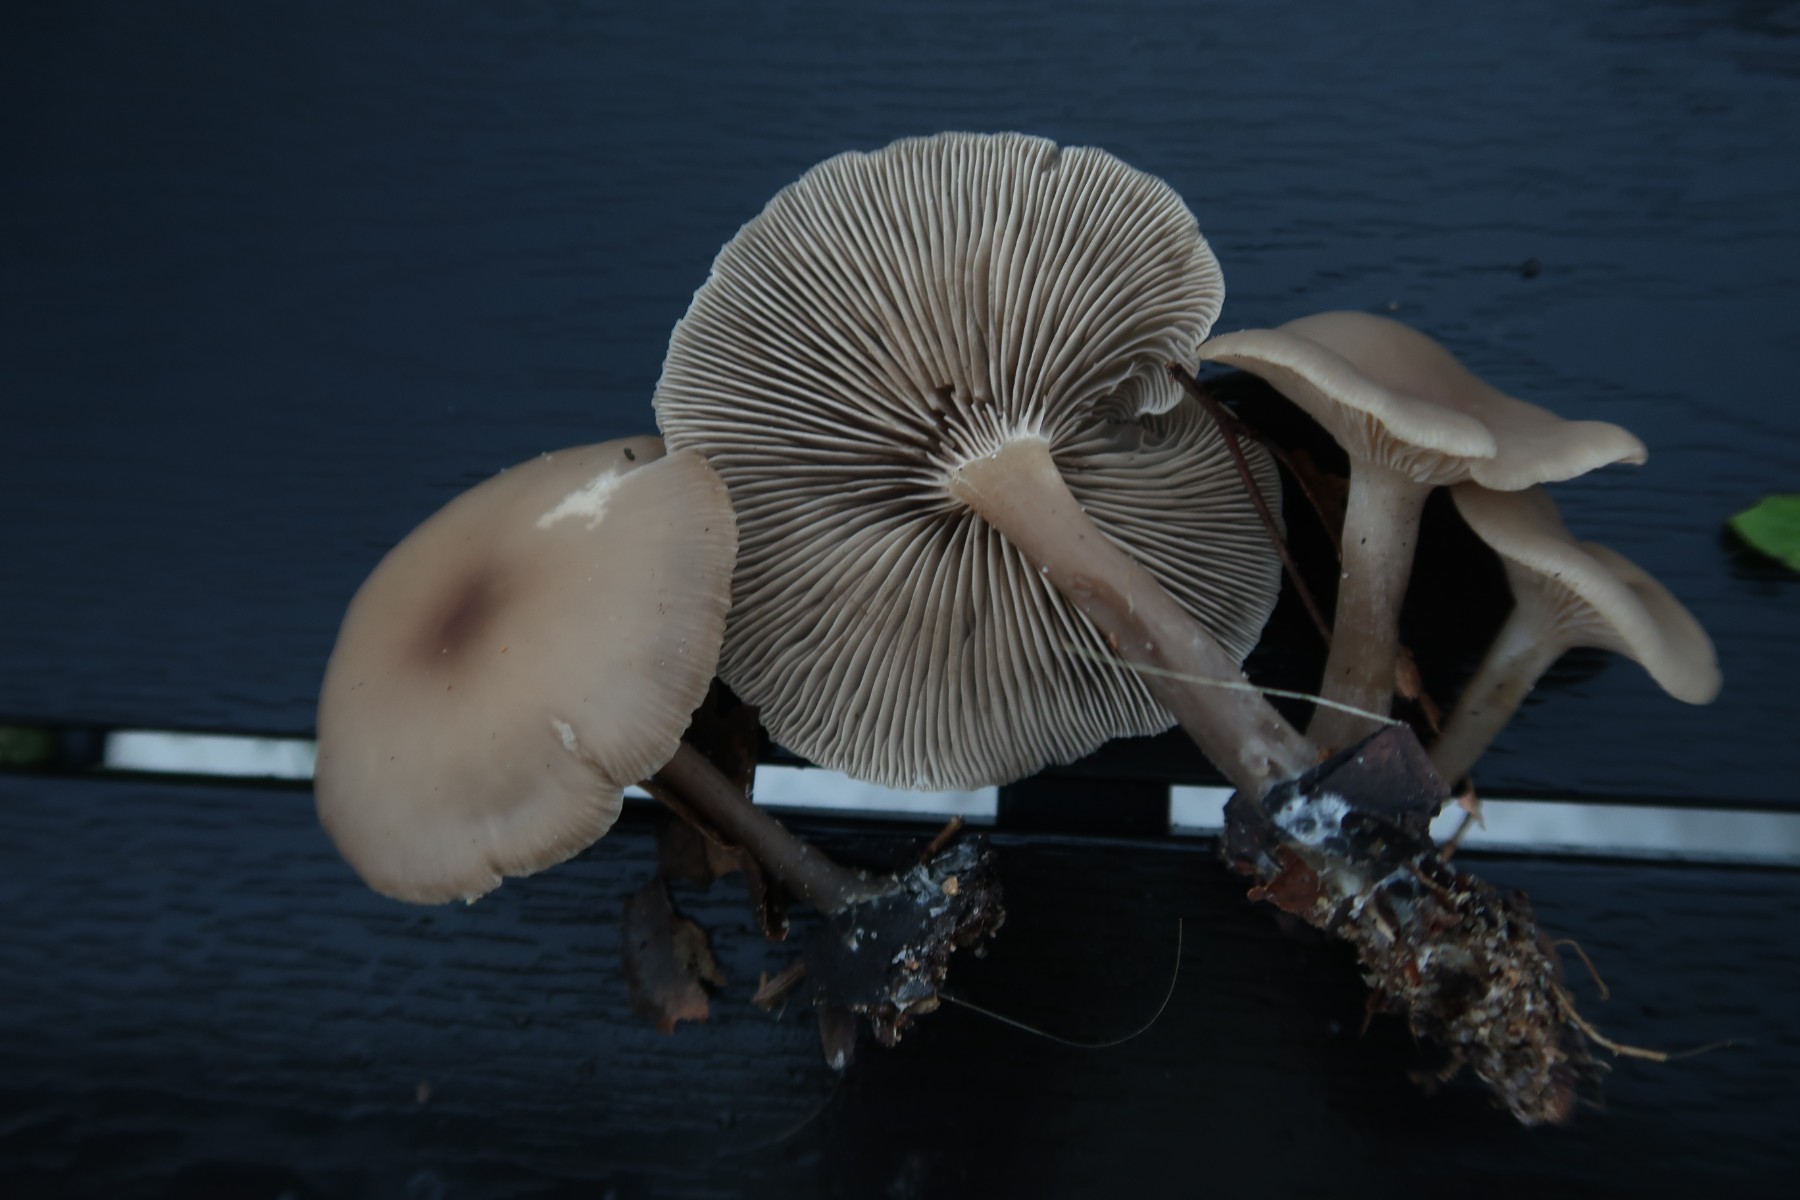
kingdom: Fungi
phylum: Basidiomycota
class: Agaricomycetes
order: Agaricales
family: Tricholomataceae
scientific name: Tricholomataceae
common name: ridderhatfamilien
